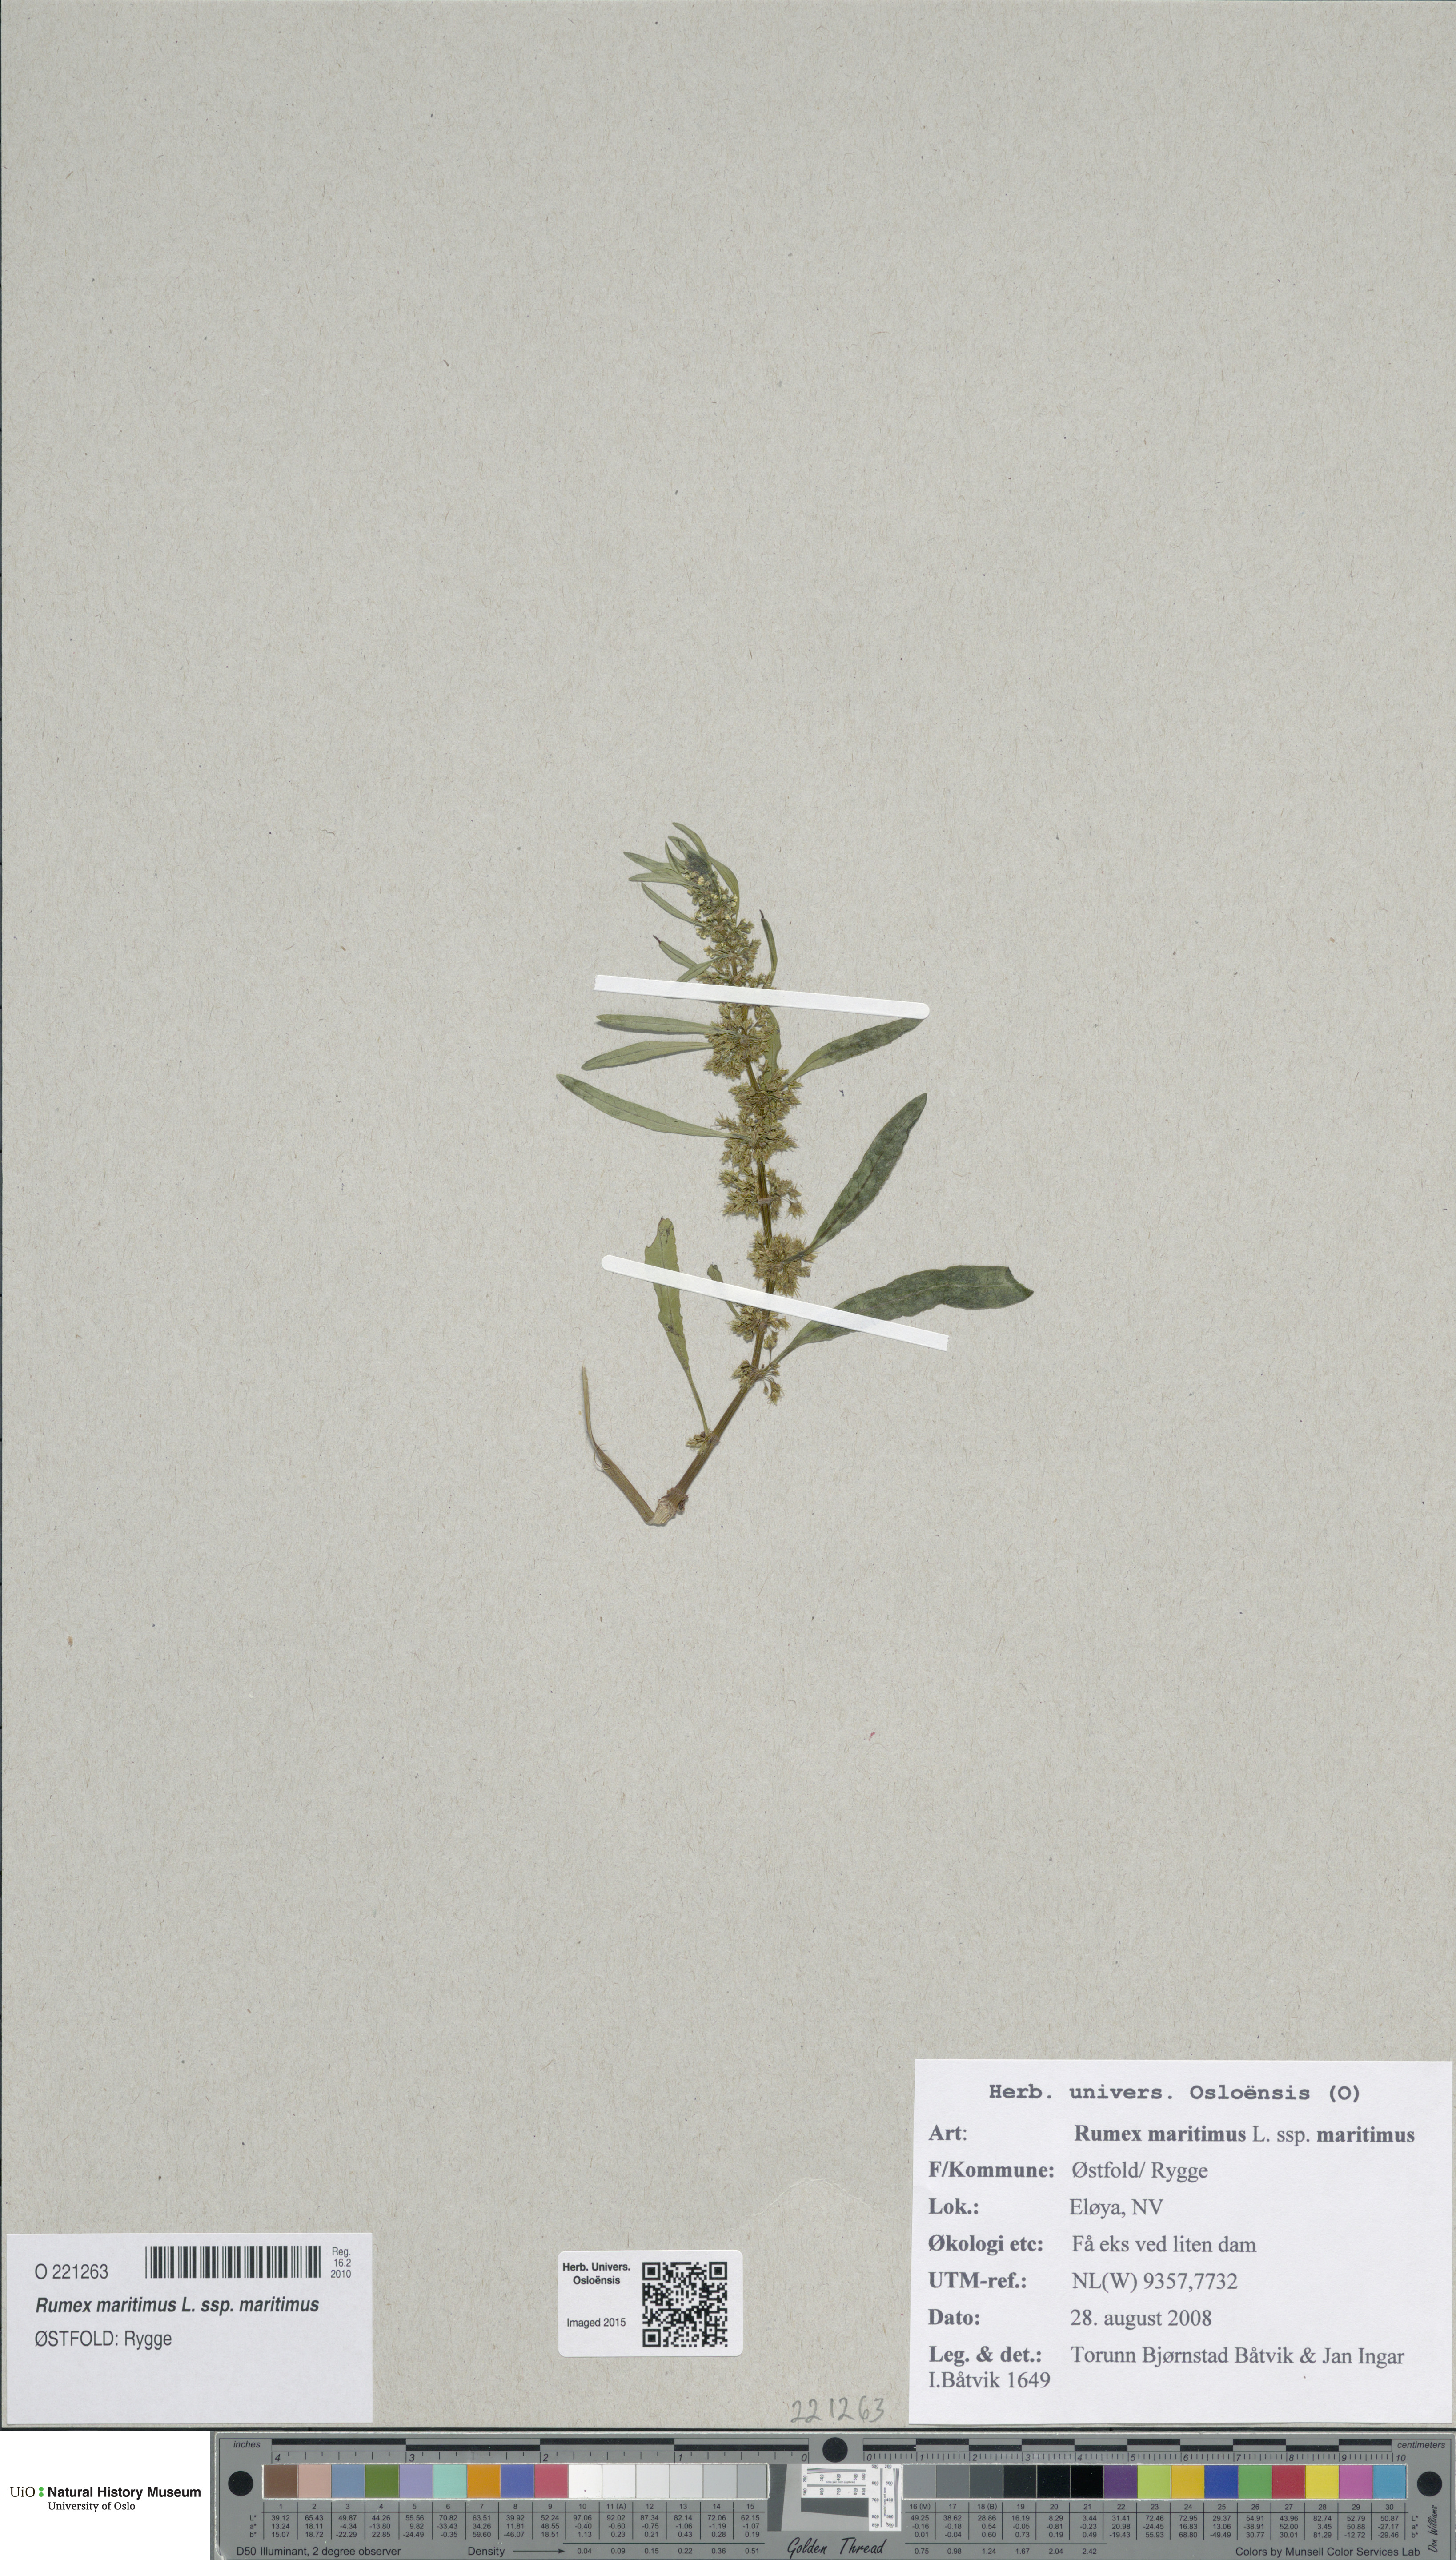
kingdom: Plantae
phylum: Tracheophyta
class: Magnoliopsida
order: Caryophyllales
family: Polygonaceae
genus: Rumex
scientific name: Rumex maritimus
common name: Golden dock
